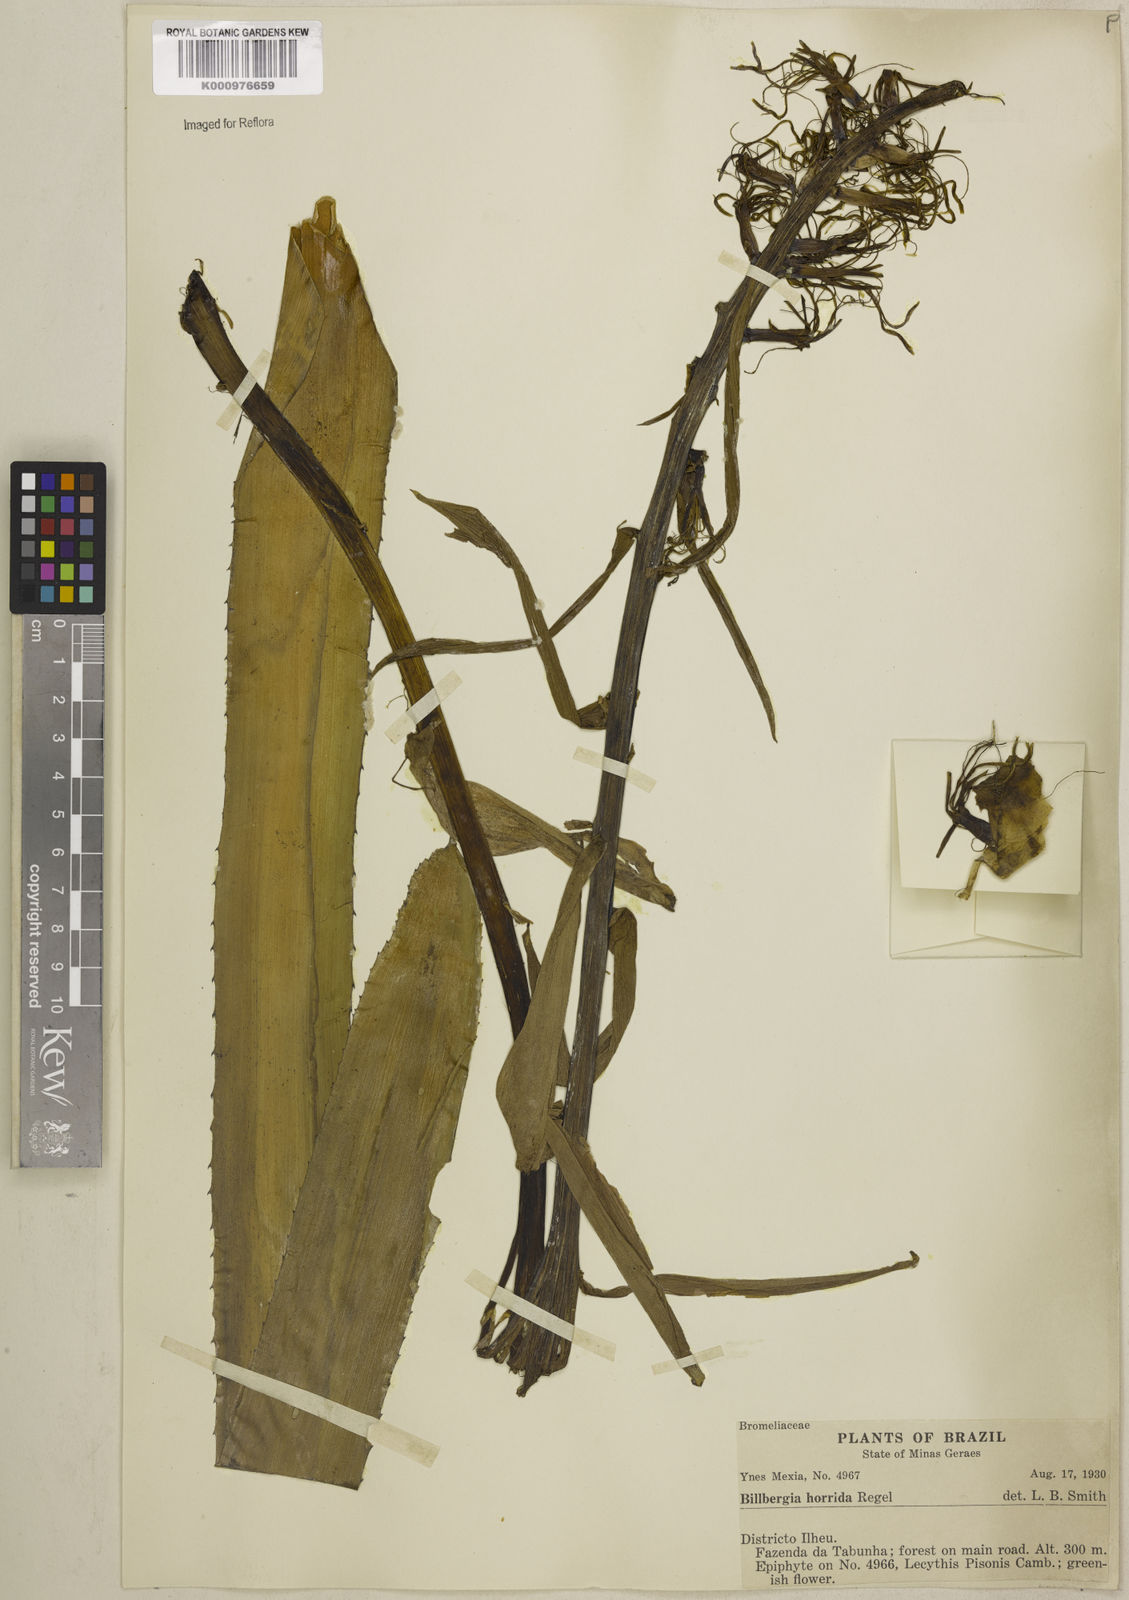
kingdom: Plantae
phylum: Tracheophyta
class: Liliopsida
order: Poales
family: Bromeliaceae
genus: Billbergia
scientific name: Billbergia horrida
